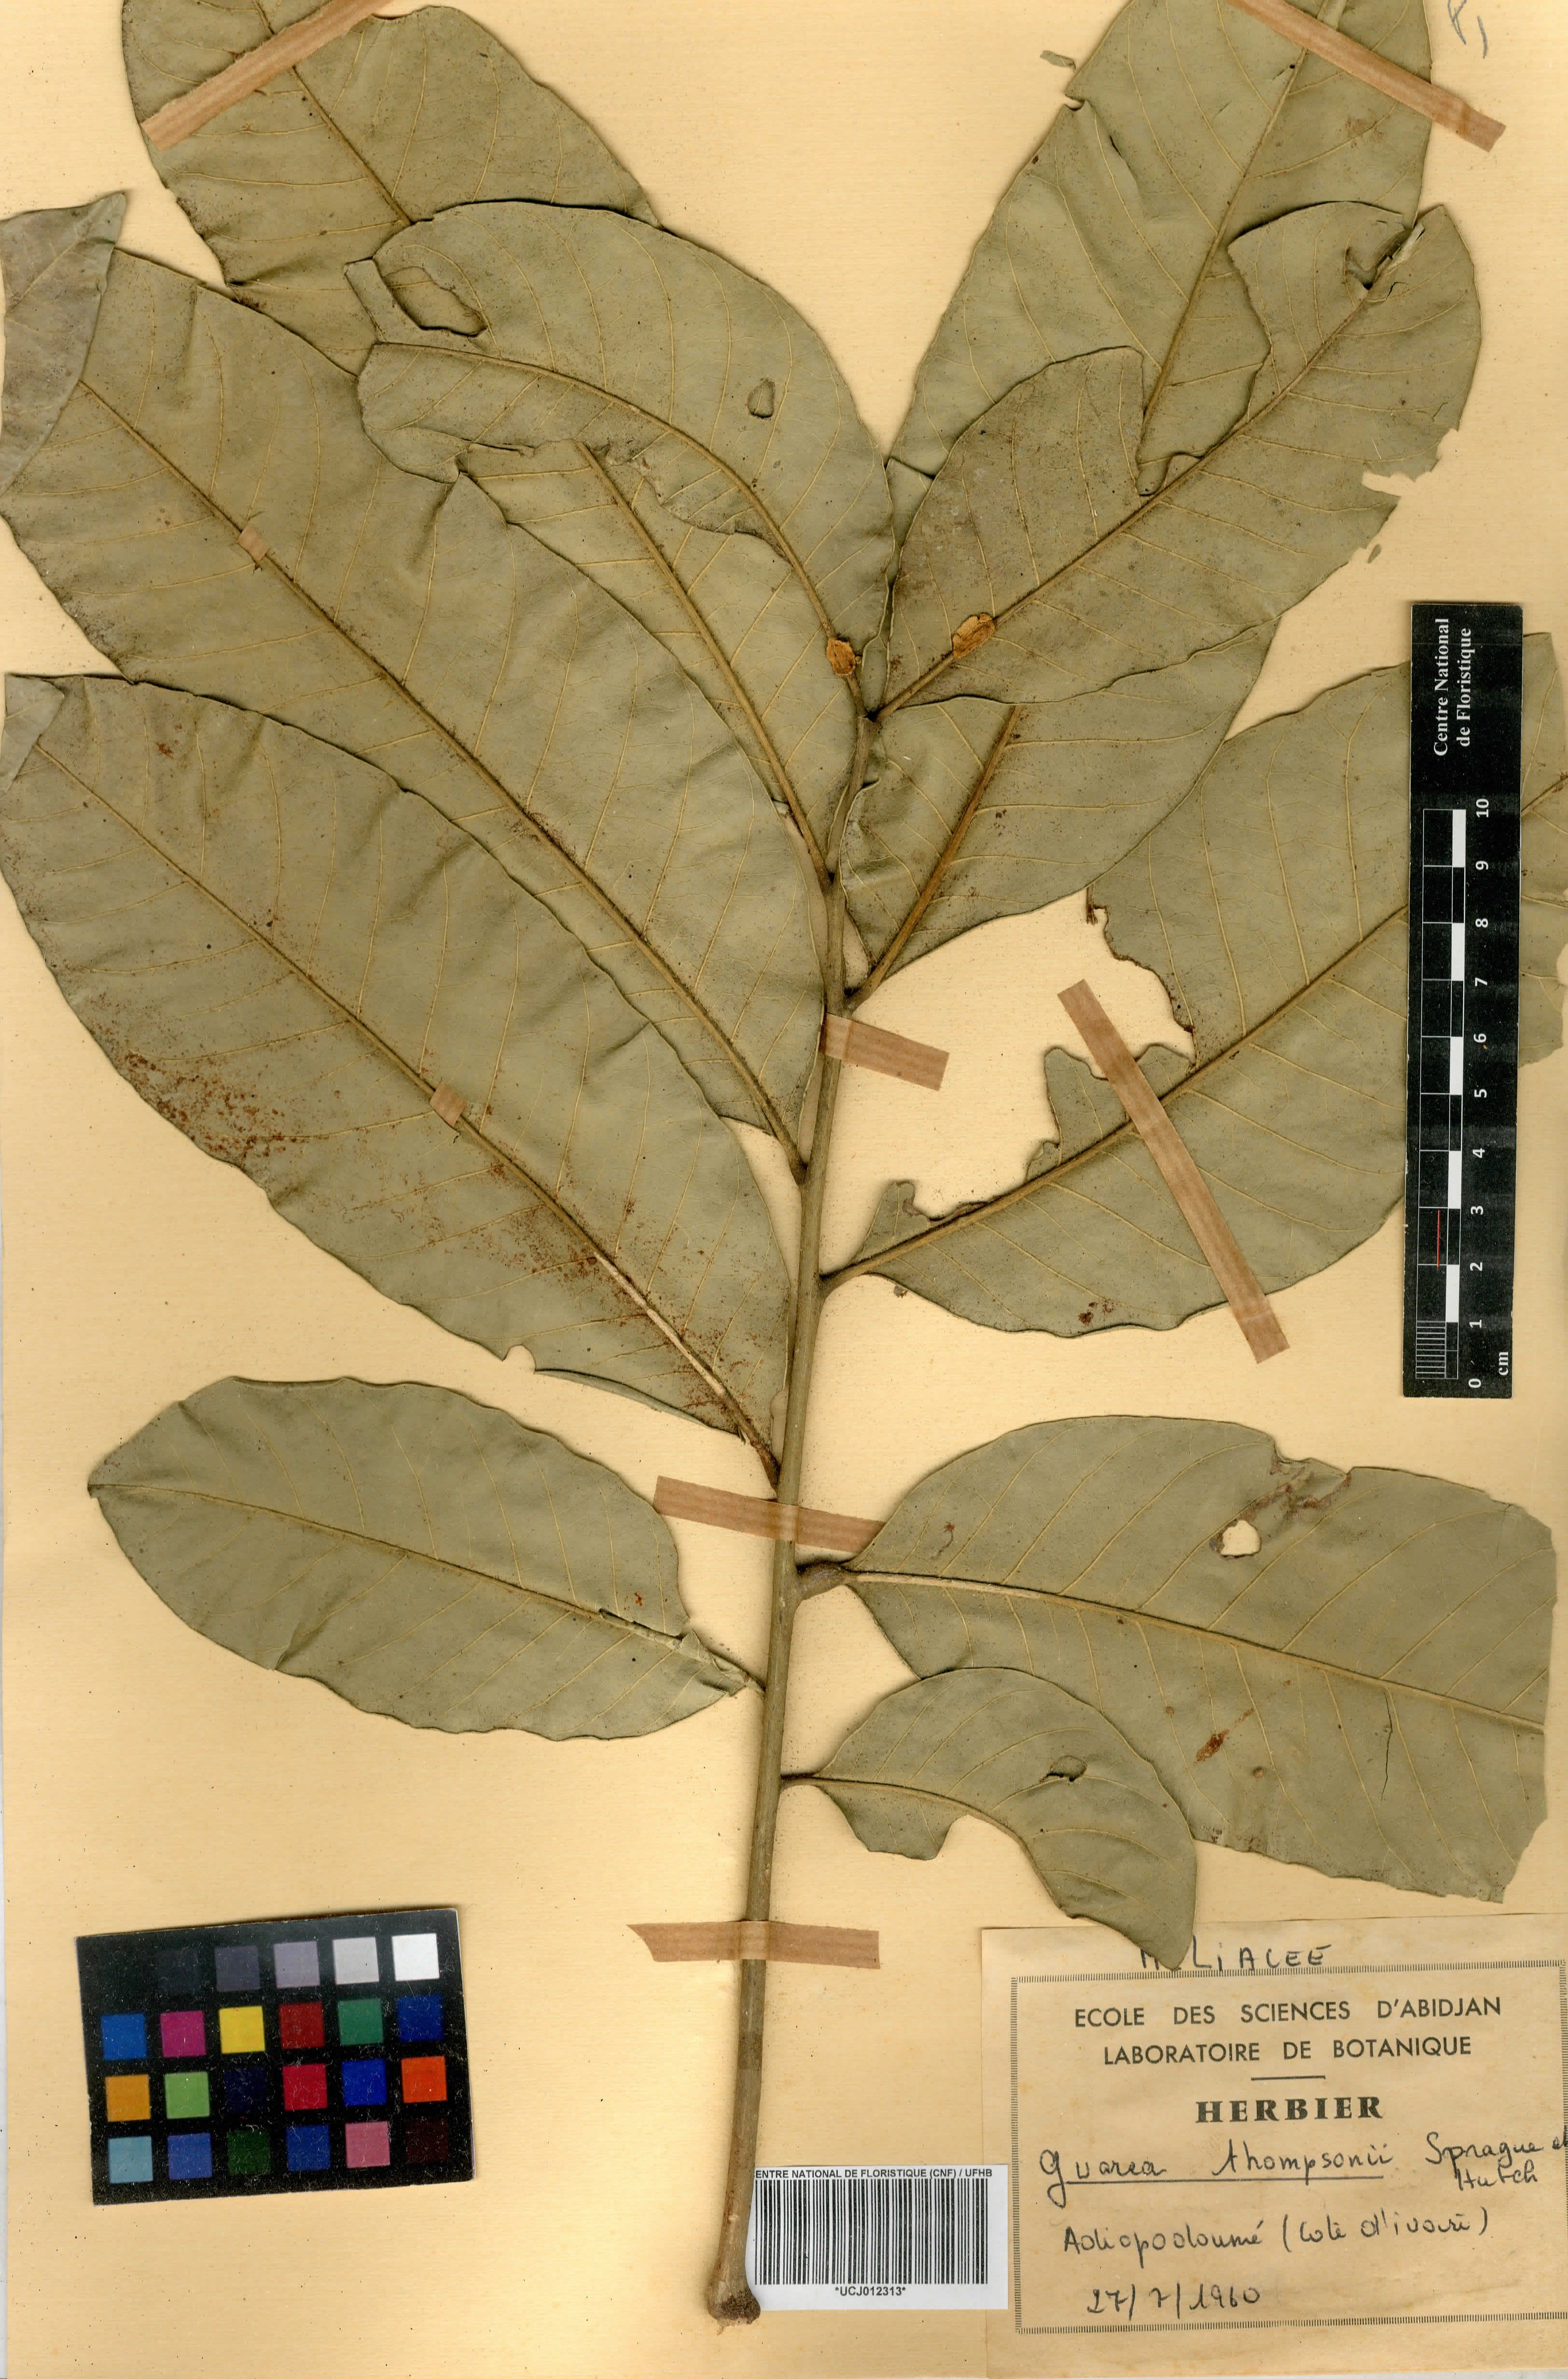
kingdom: Plantae
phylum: Tracheophyta
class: Magnoliopsida
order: Sapindales
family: Meliaceae
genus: Leplaea
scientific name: Leplaea thompsonii
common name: Black guarea
